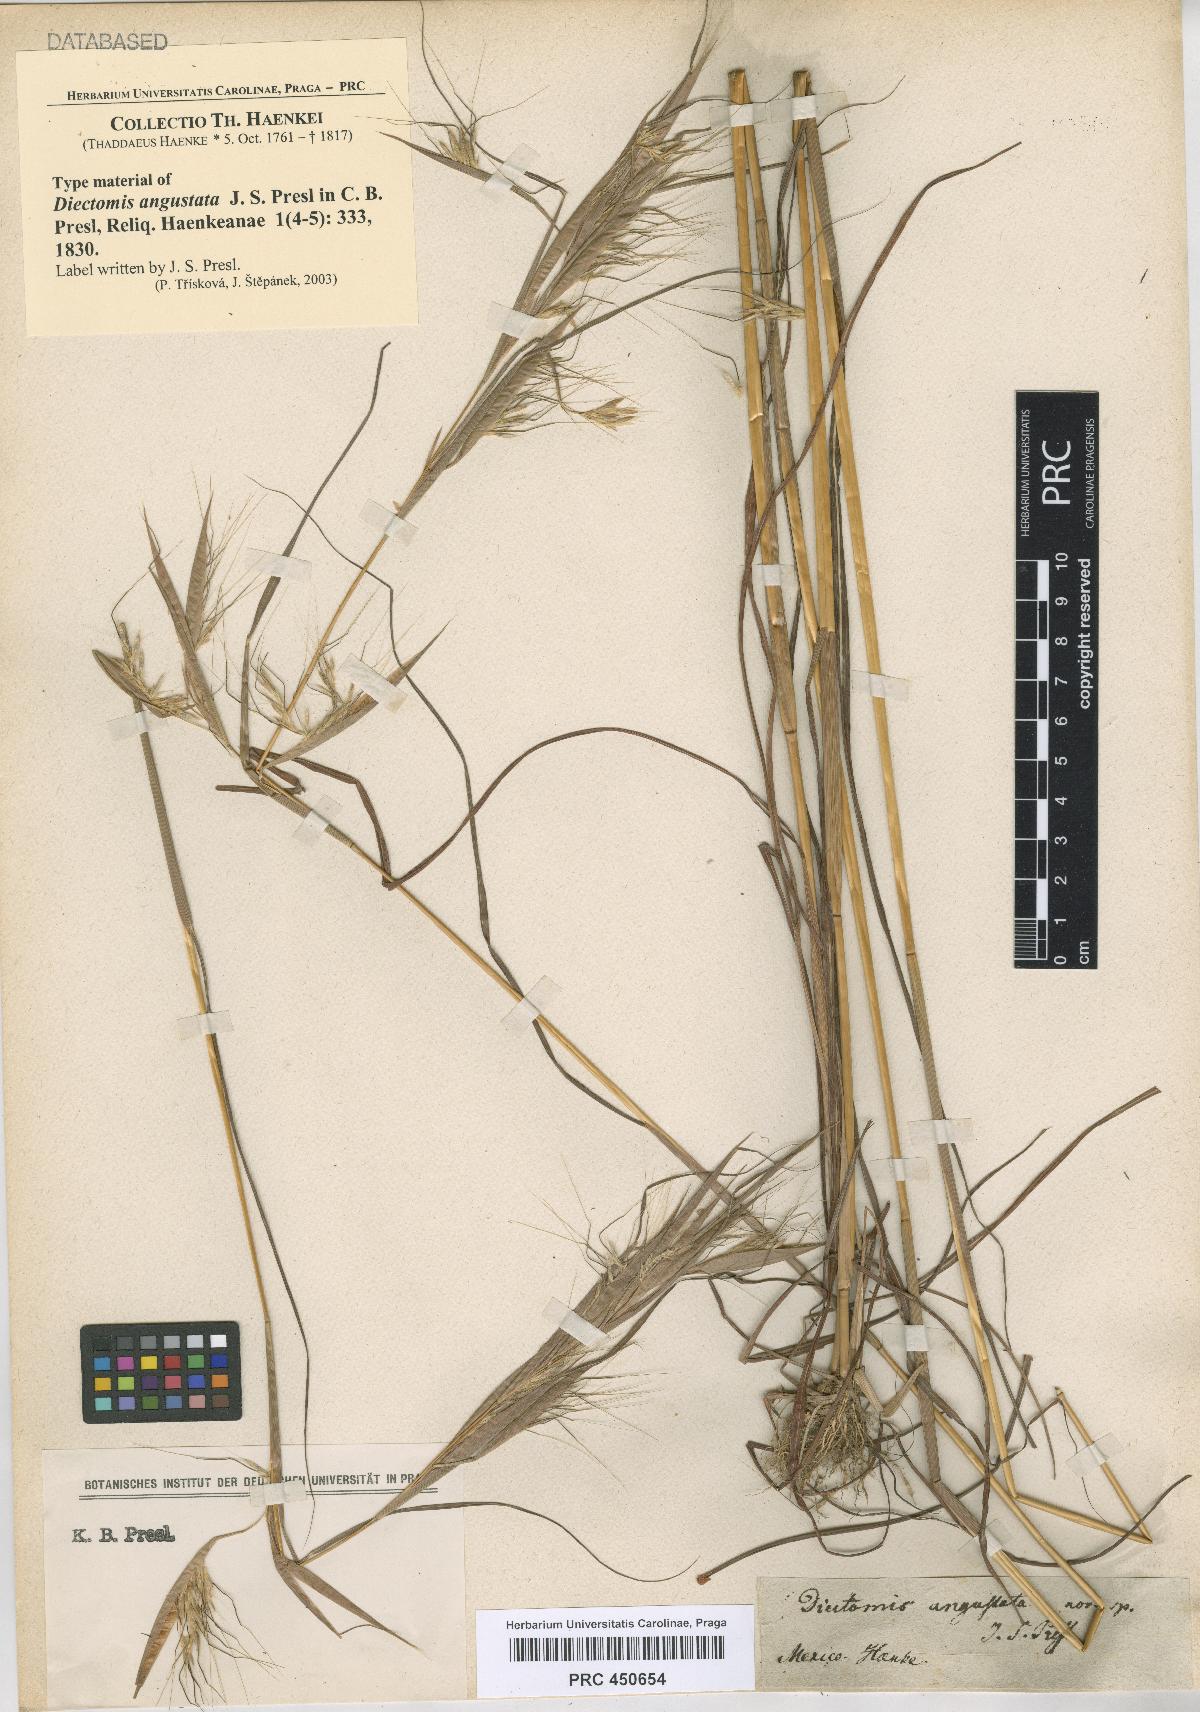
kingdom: Plantae
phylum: Tracheophyta
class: Liliopsida
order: Poales
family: Poaceae
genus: Andropogon
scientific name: Andropogon angustatus
